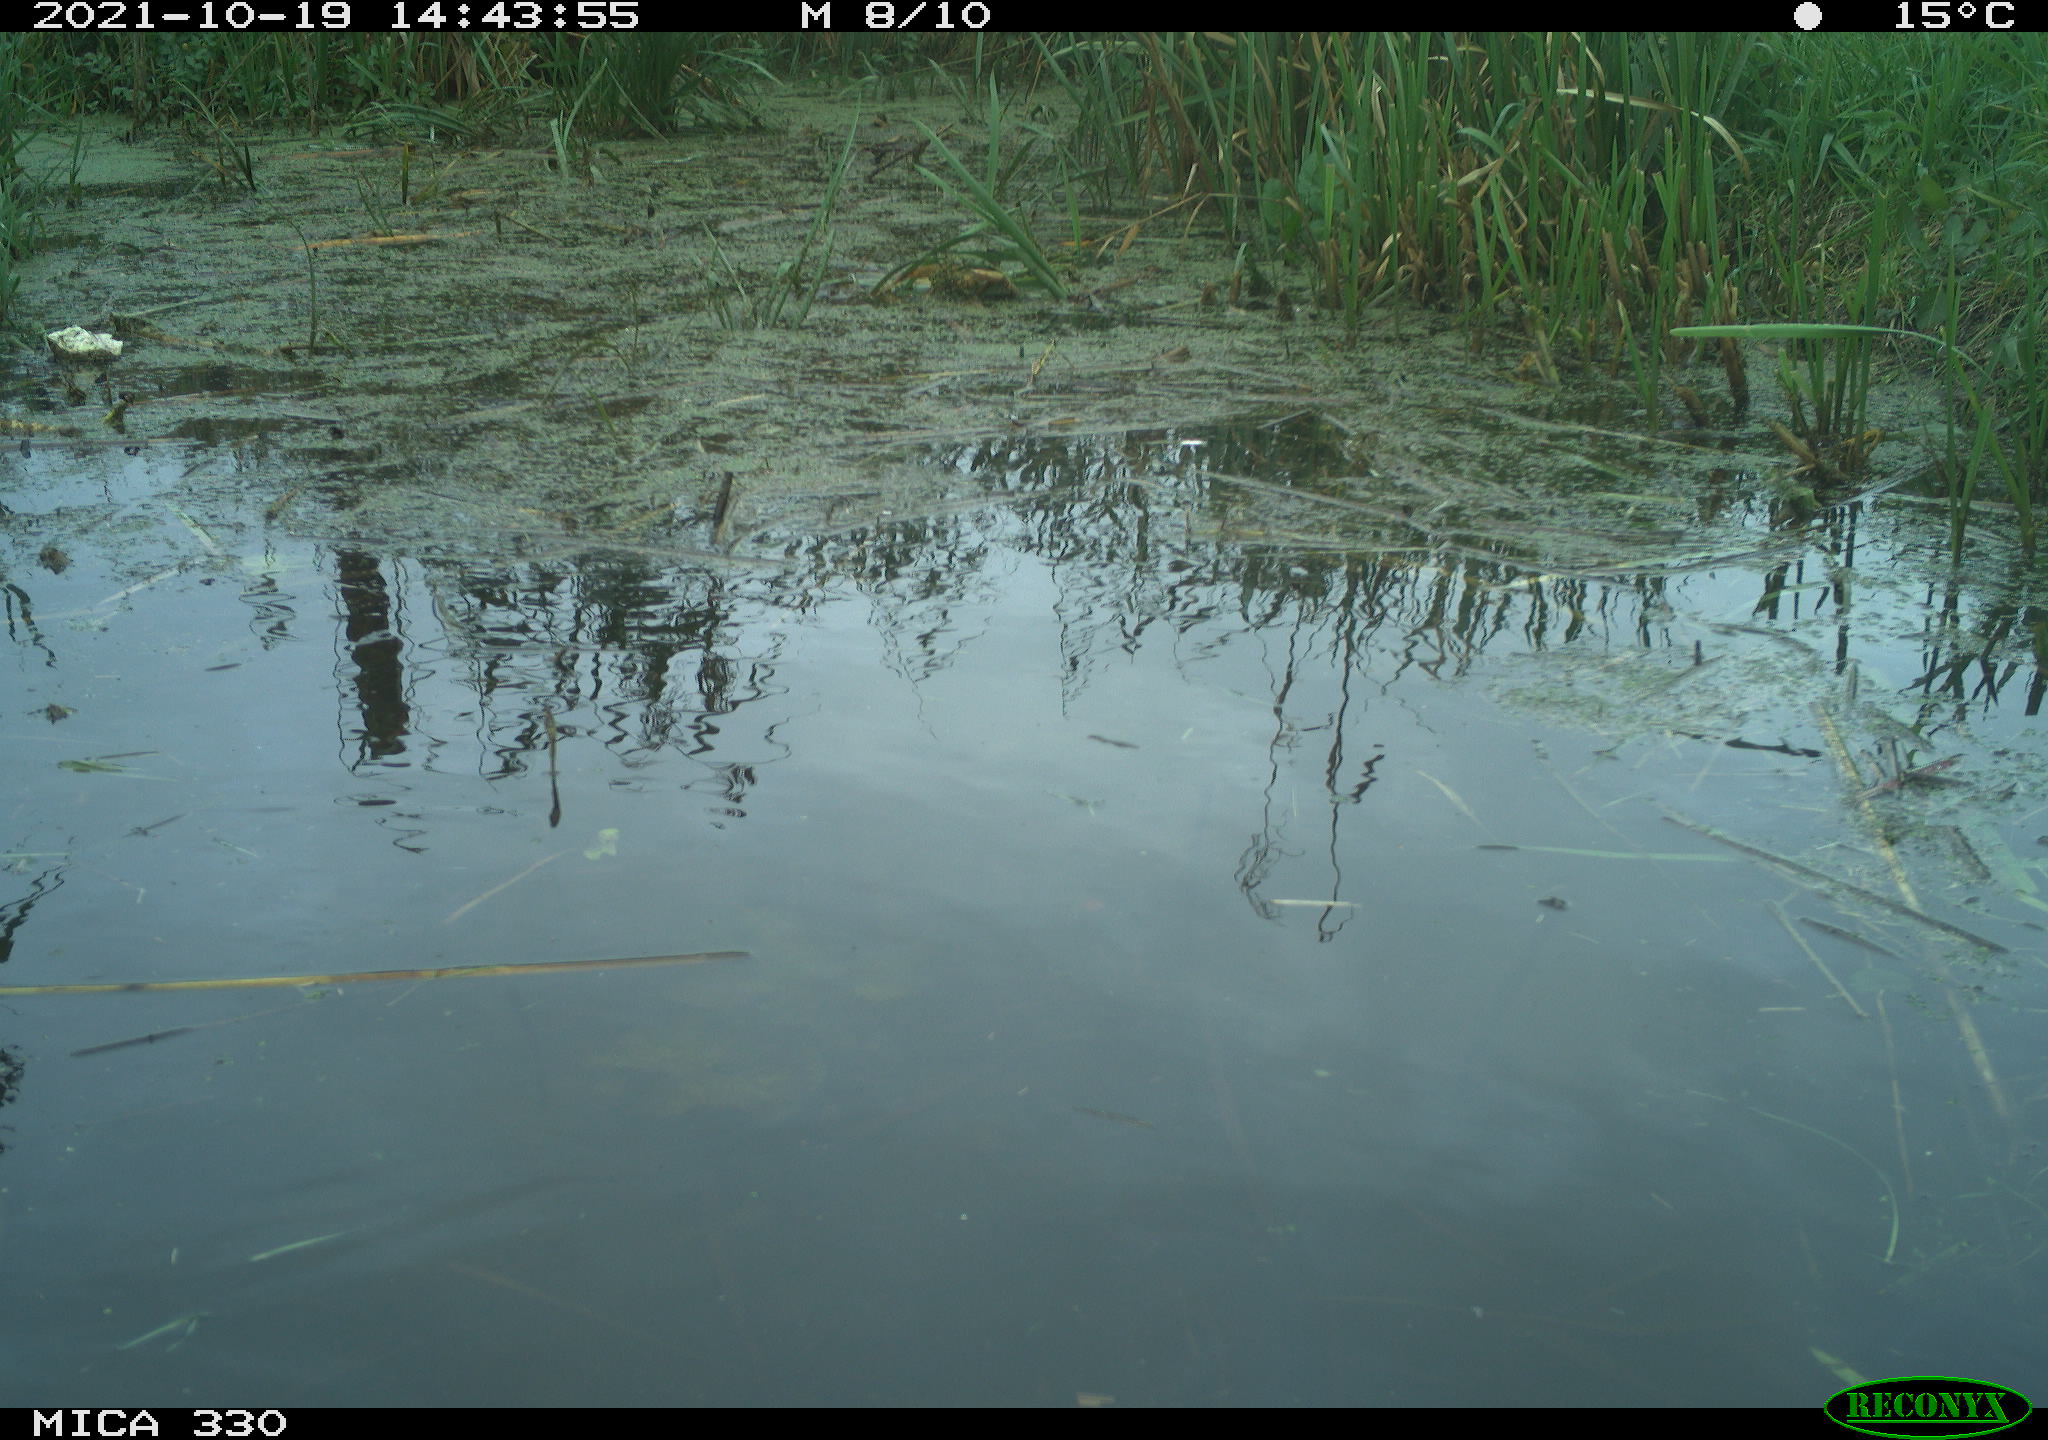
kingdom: Animalia
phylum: Chordata
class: Aves
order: Gruiformes
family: Rallidae
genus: Gallinula
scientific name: Gallinula chloropus
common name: Common moorhen
